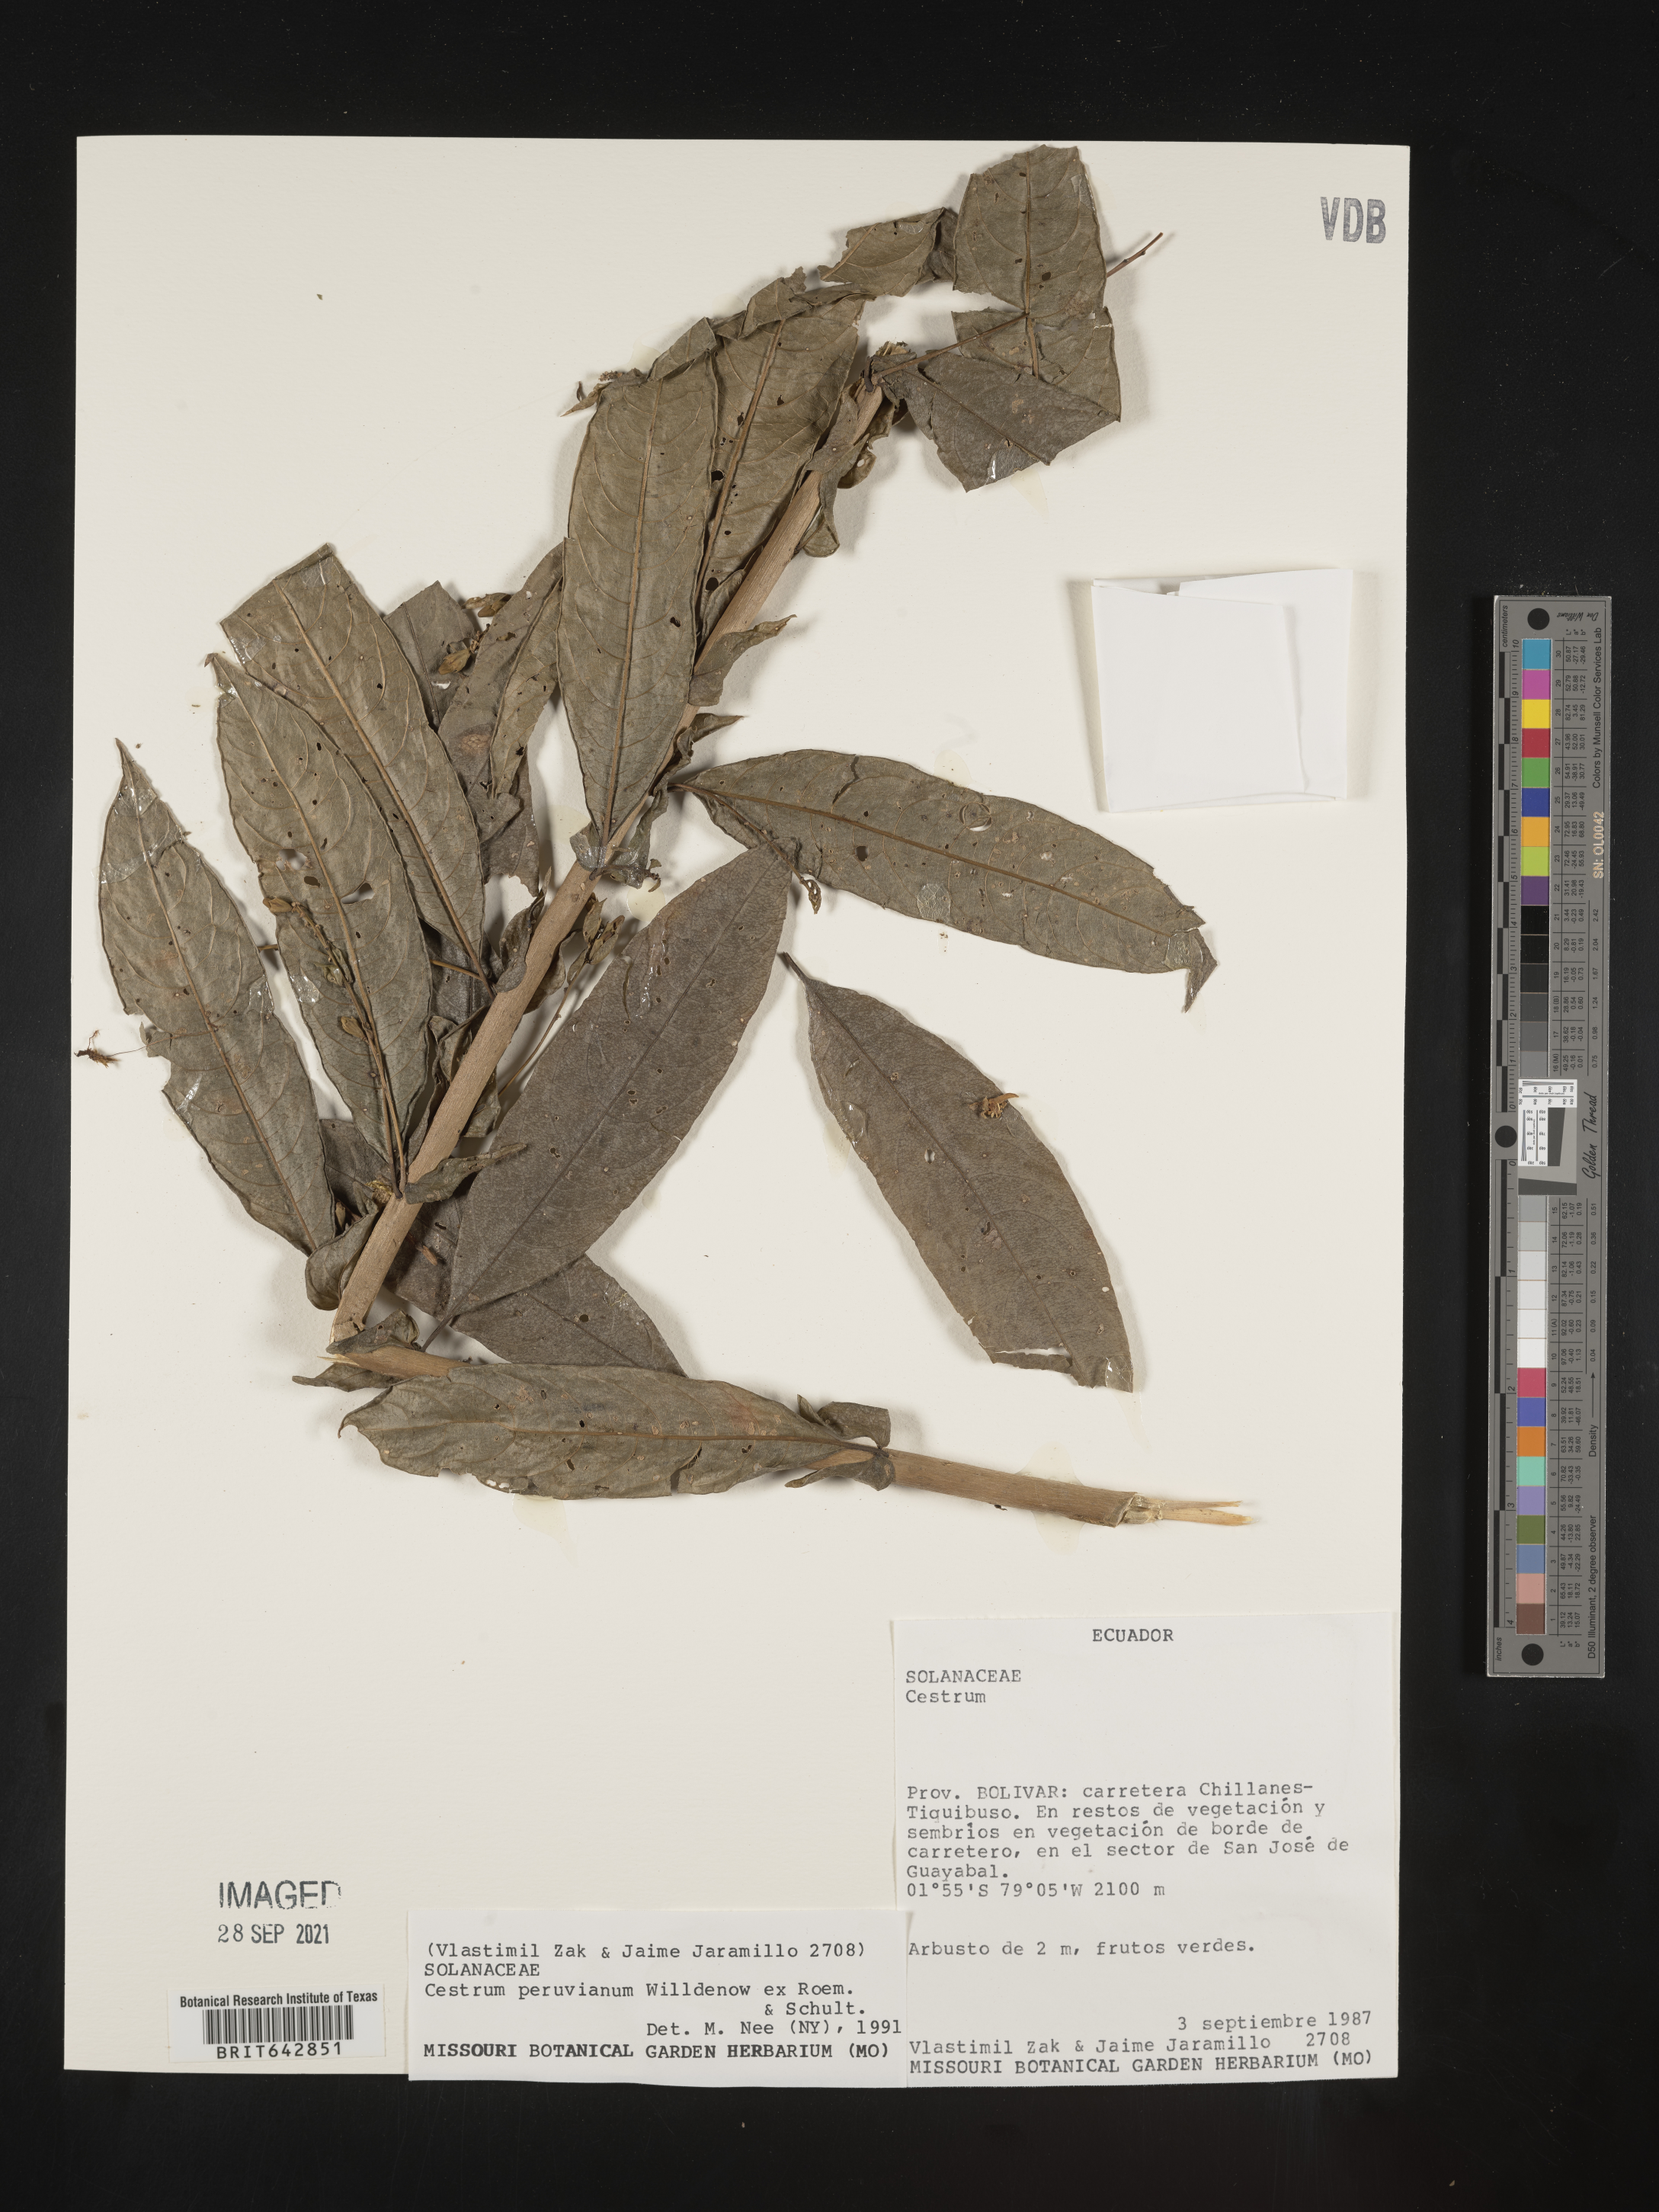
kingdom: Plantae
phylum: Tracheophyta
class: Magnoliopsida
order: Solanales
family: Solanaceae
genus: Cestrum
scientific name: Cestrum
